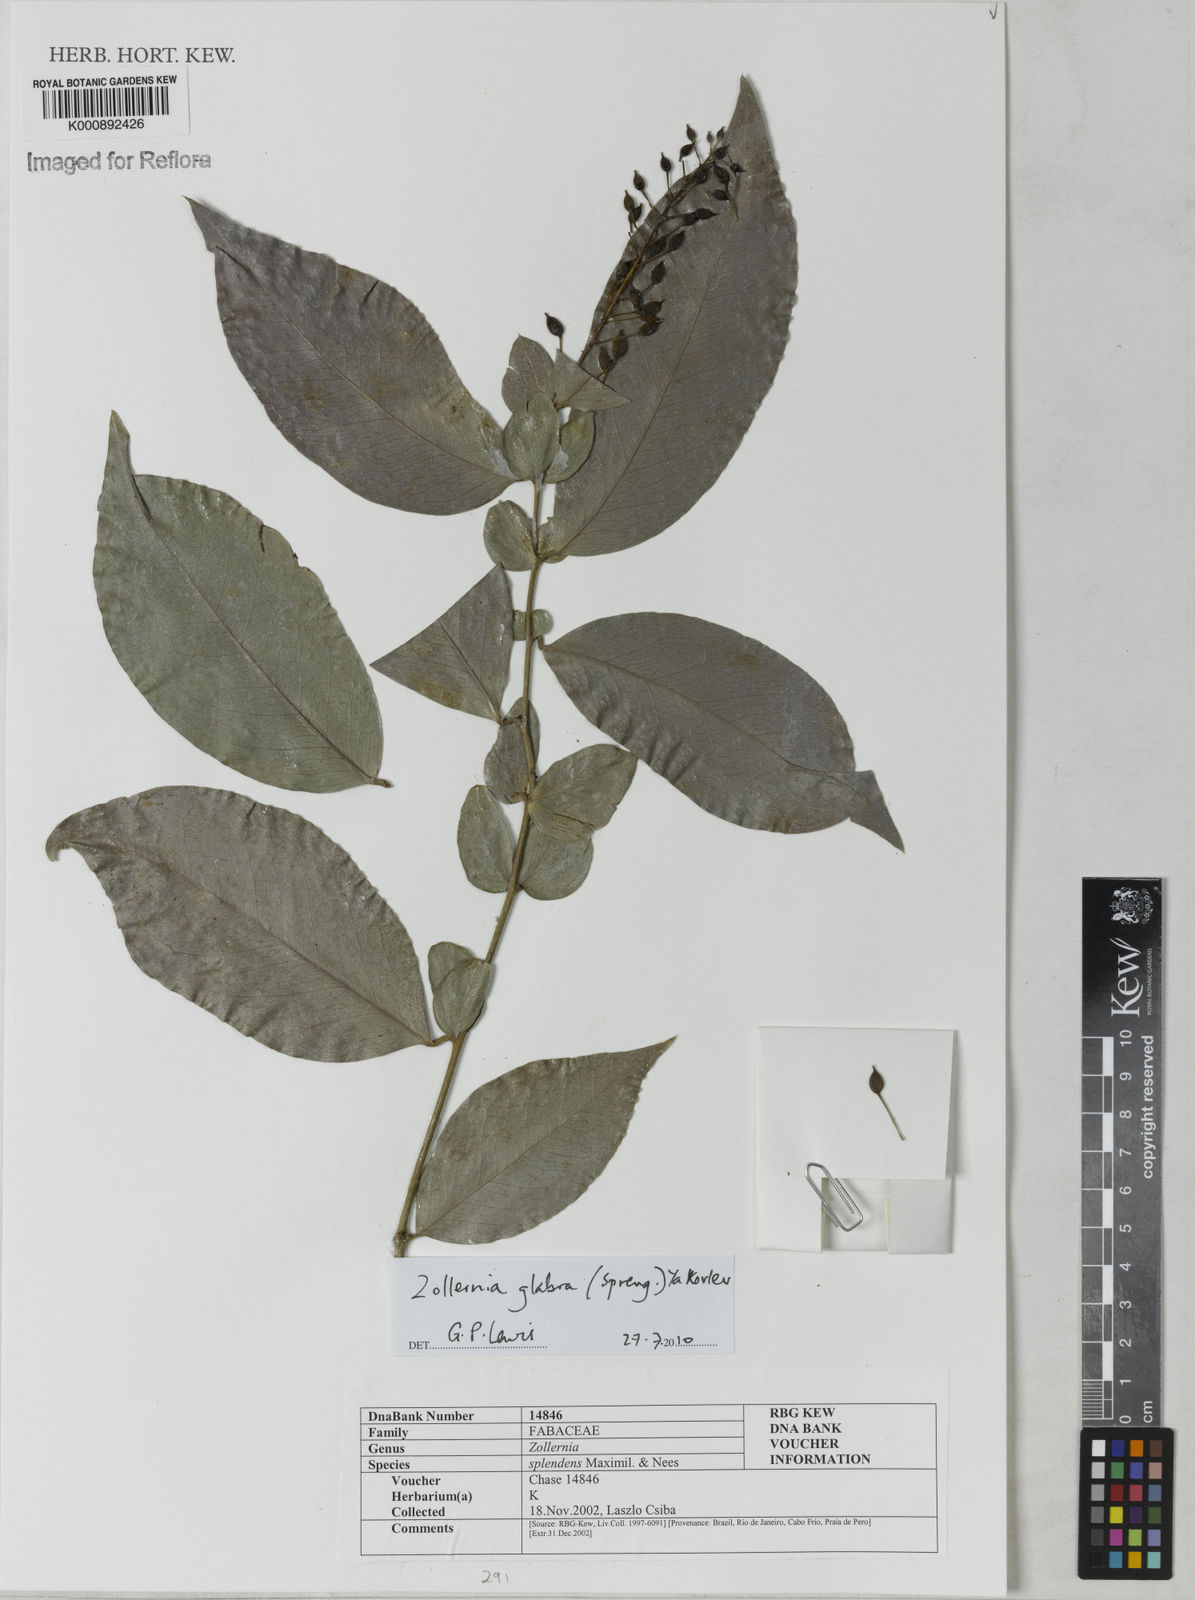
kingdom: Plantae
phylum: Tracheophyta
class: Magnoliopsida
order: Fabales
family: Fabaceae
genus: Zollernia
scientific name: Zollernia glabra
